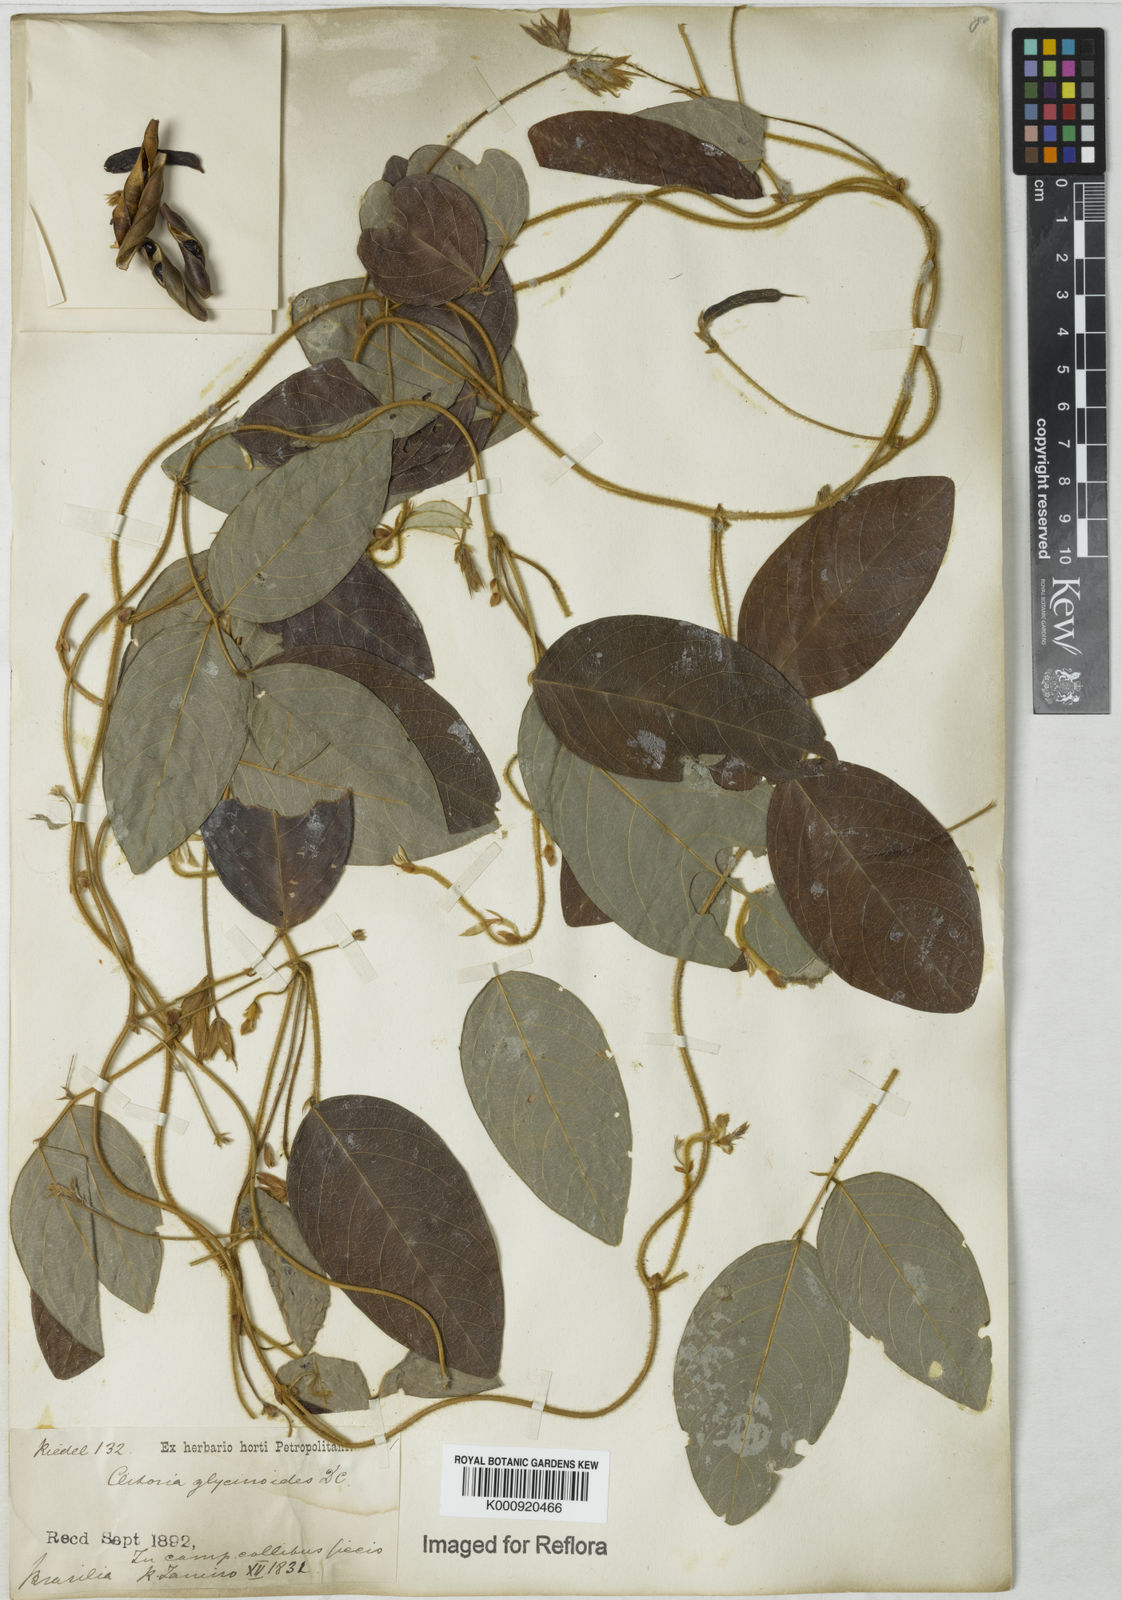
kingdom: Plantae
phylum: Tracheophyta
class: Magnoliopsida
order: Fabales
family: Fabaceae
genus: Clitoria
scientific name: Clitoria
